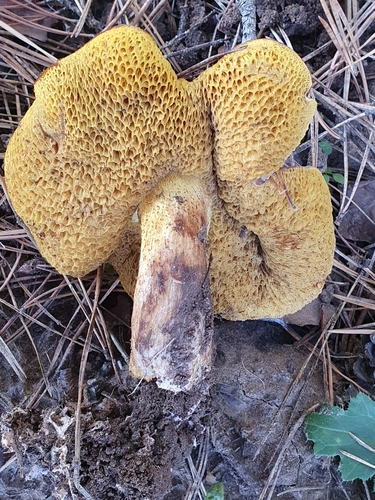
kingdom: Fungi
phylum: Basidiomycota
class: Agaricomycetes
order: Boletales
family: Suillaceae
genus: Suillus
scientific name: Suillus bovinus
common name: Bovine bolete
